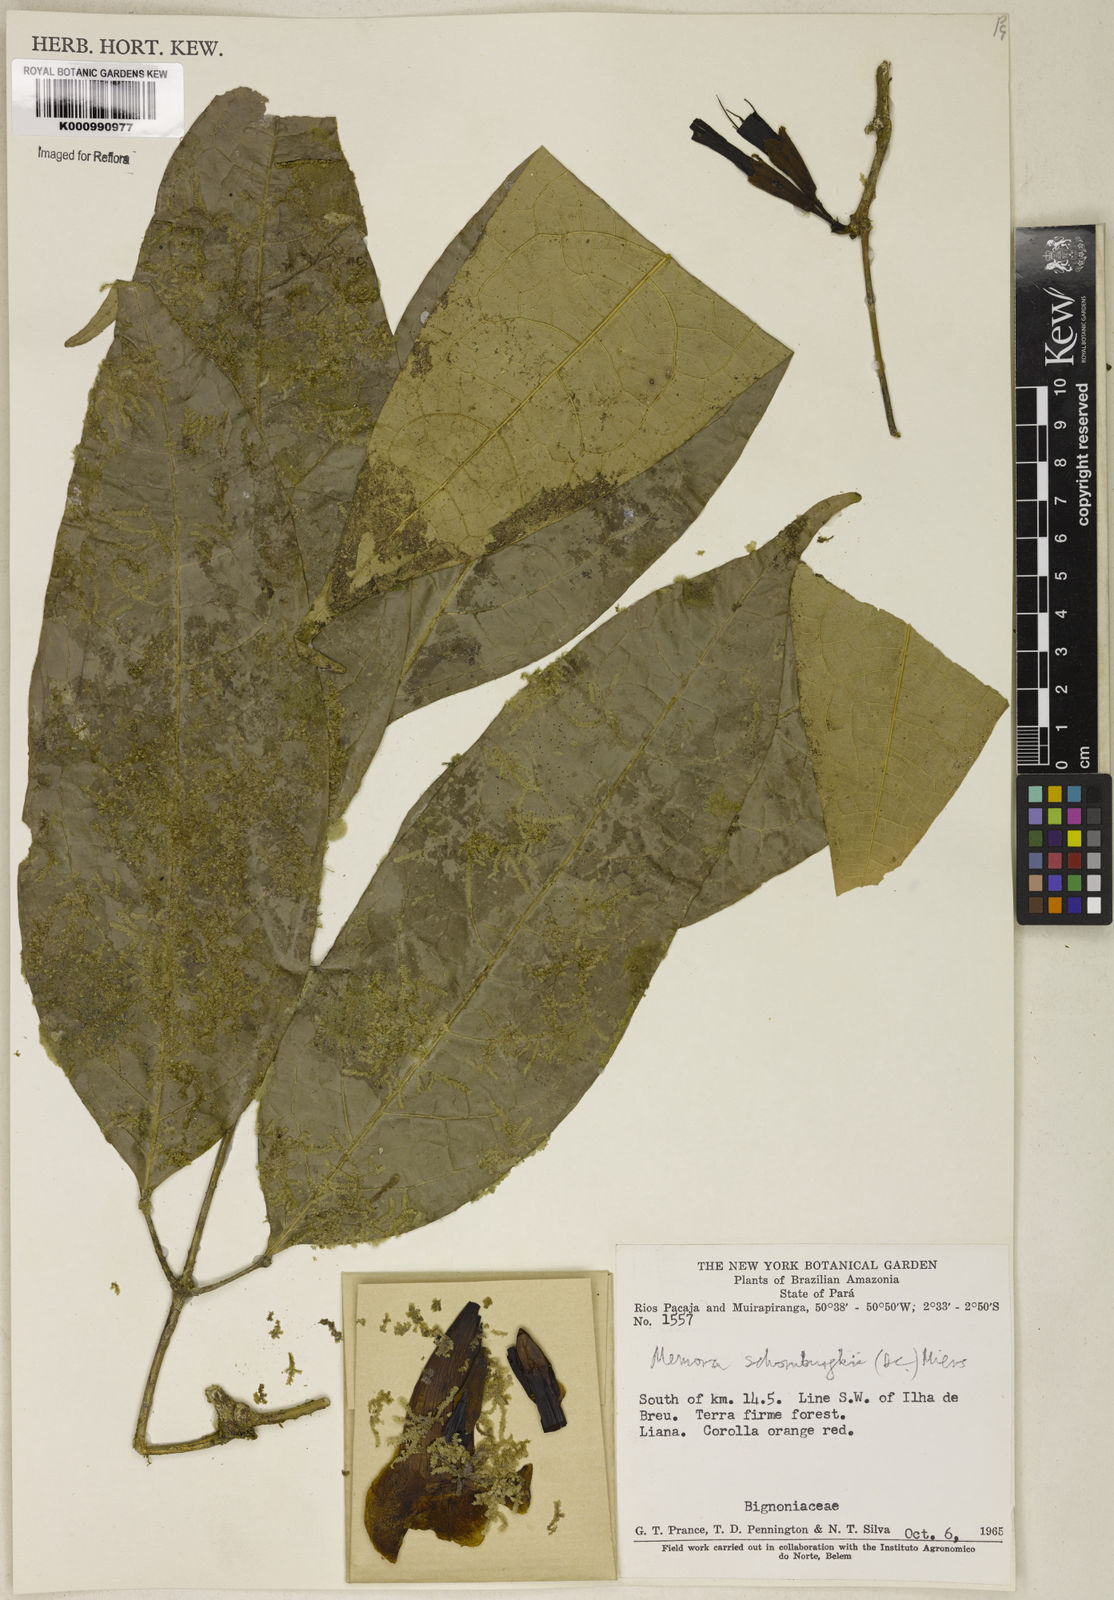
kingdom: Plantae
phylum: Tracheophyta
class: Magnoliopsida
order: Lamiales
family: Bignoniaceae
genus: Adenocalymma
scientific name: Adenocalymma schomburgkii
